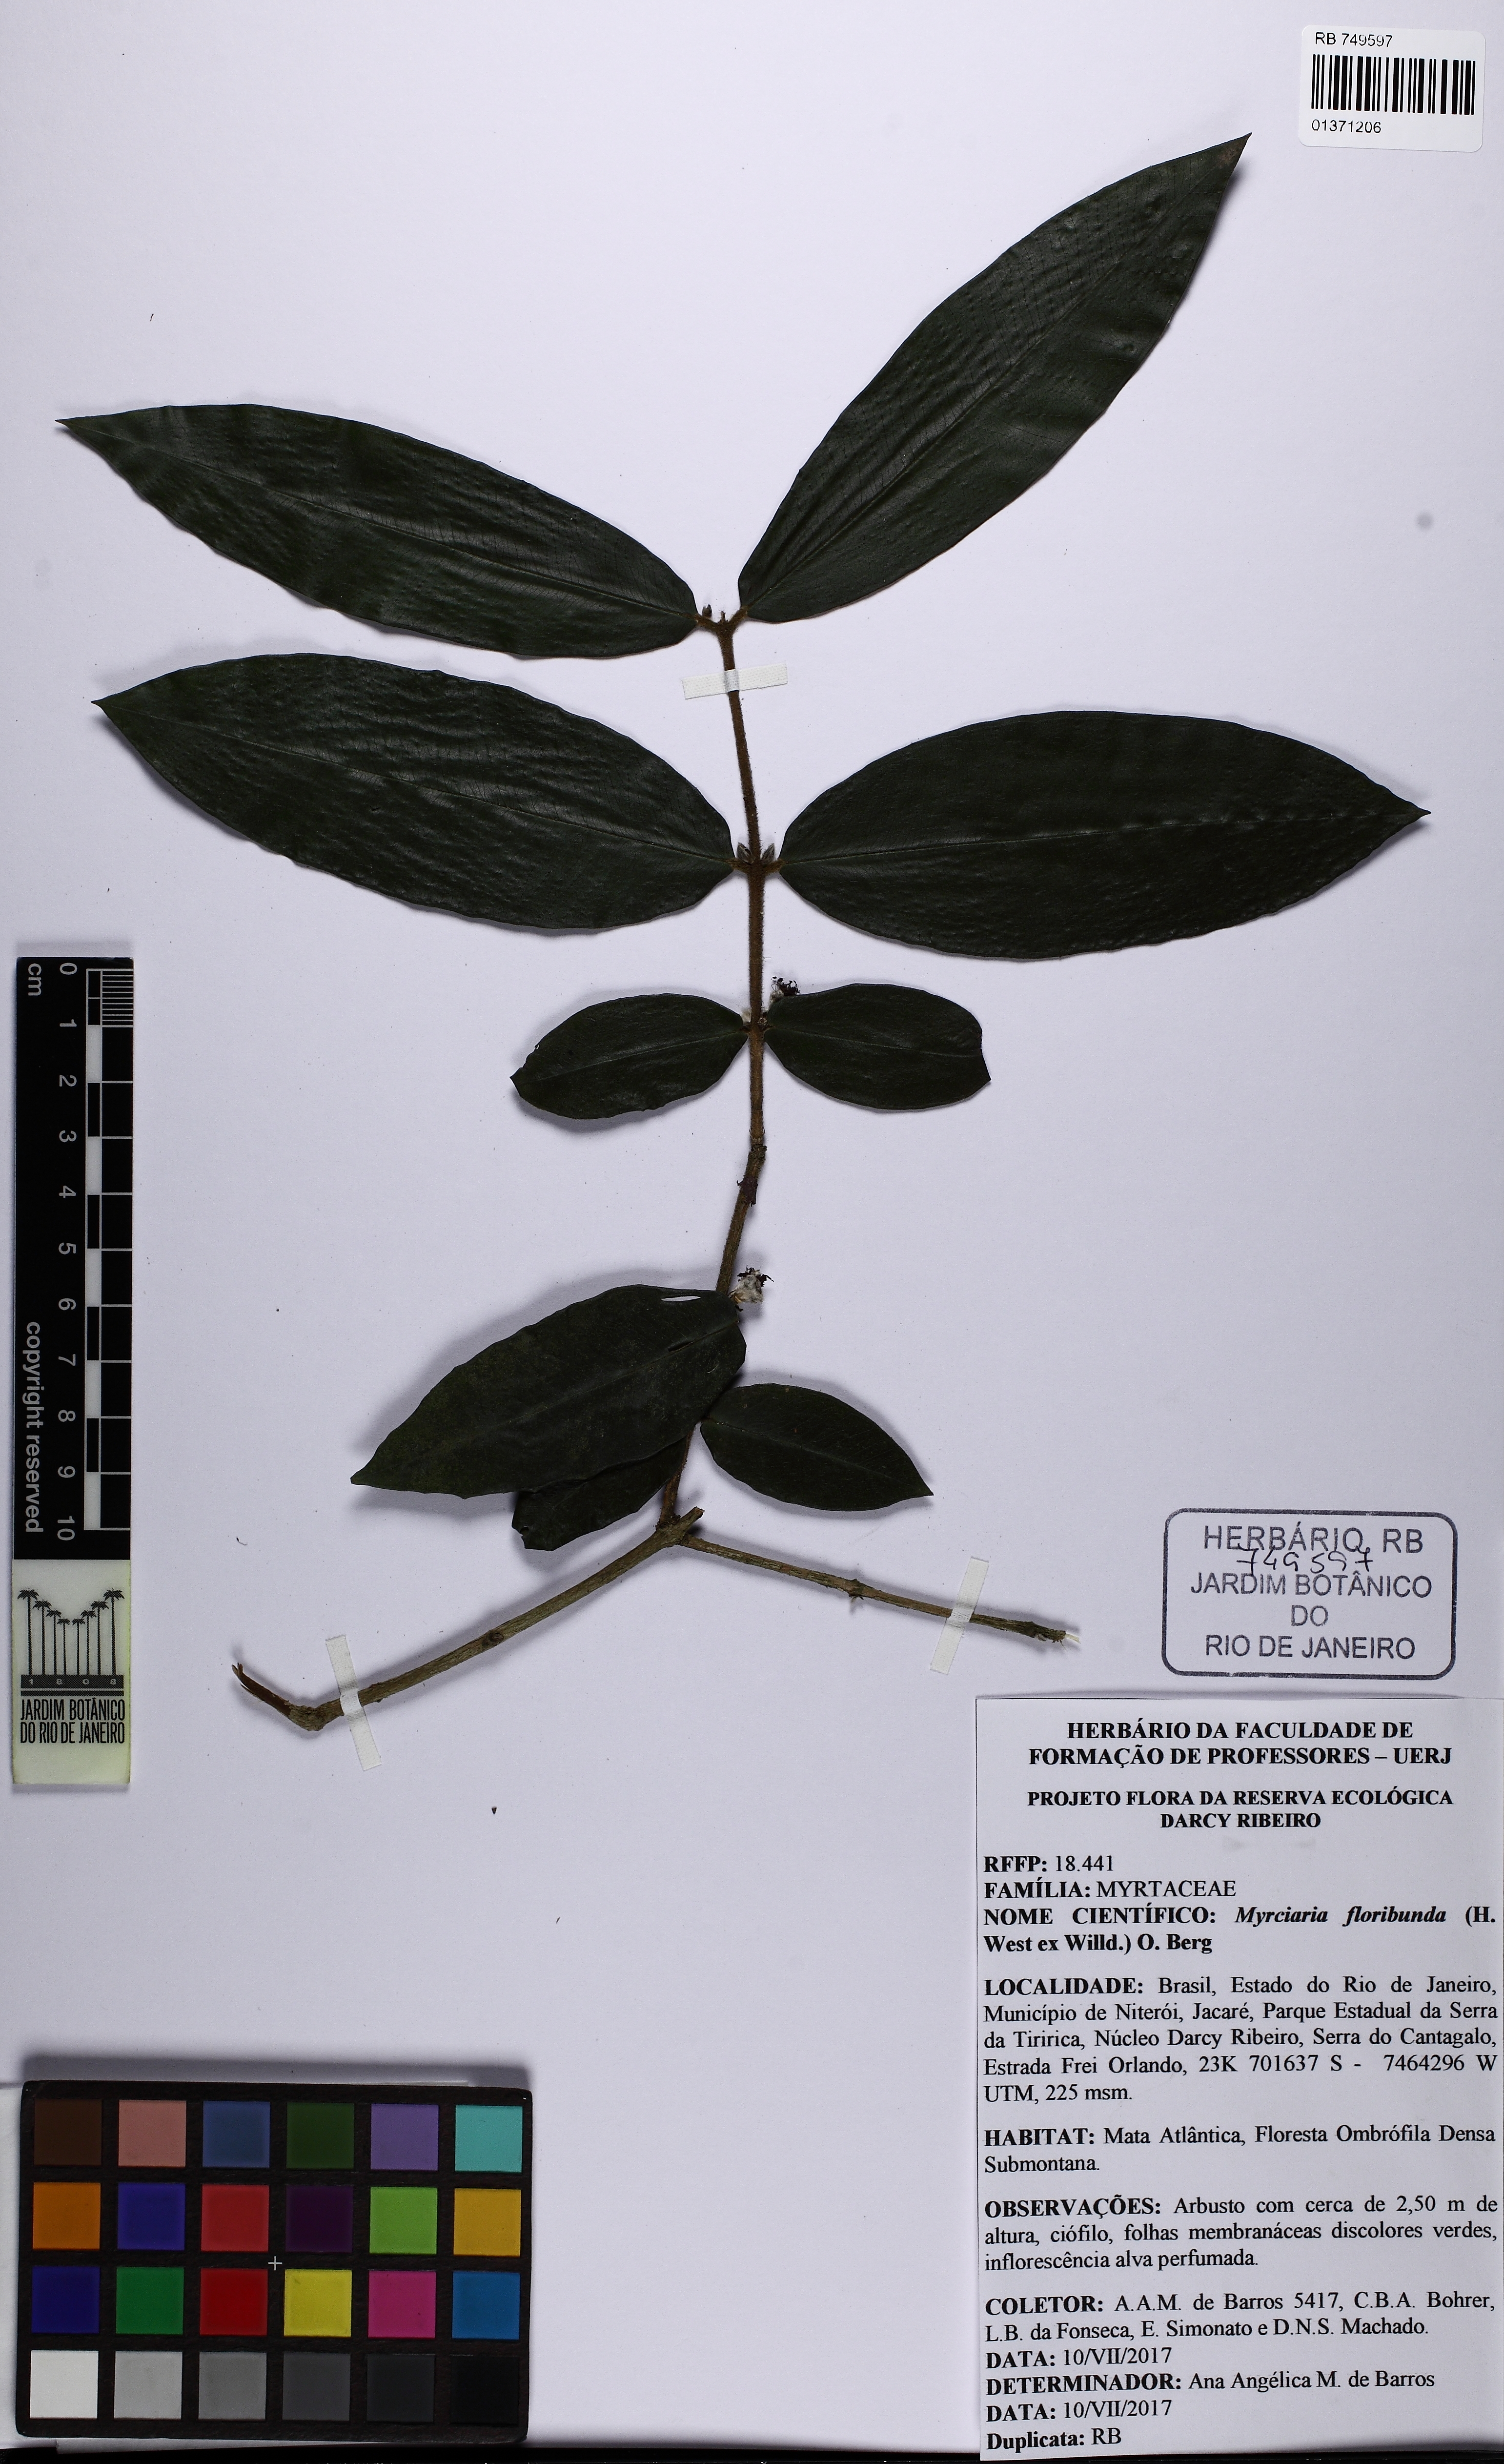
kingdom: Plantae
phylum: Tracheophyta
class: Magnoliopsida
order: Myrtales
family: Myrtaceae
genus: Myrciaria
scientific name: Myrciaria glazioviana
